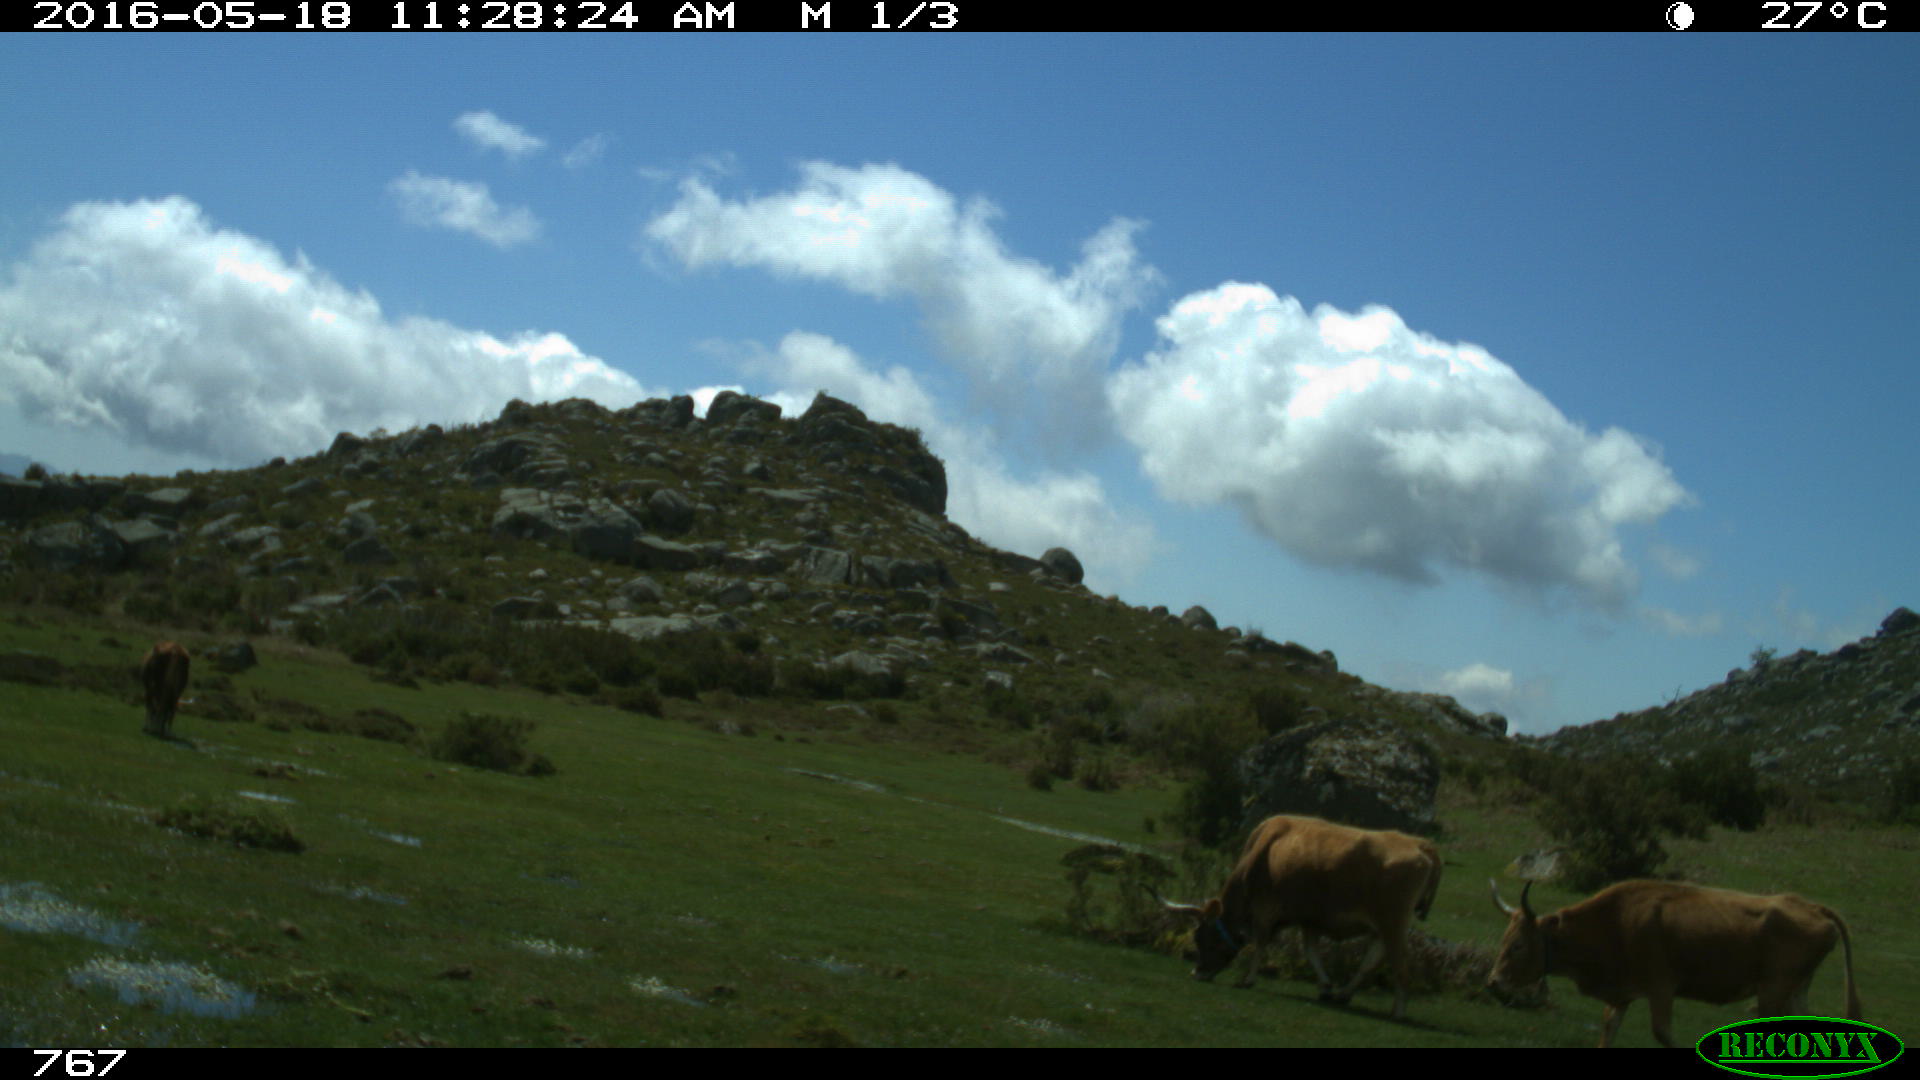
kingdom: Animalia
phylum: Chordata
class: Mammalia
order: Artiodactyla
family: Bovidae
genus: Bos
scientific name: Bos taurus
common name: Domesticated cattle
